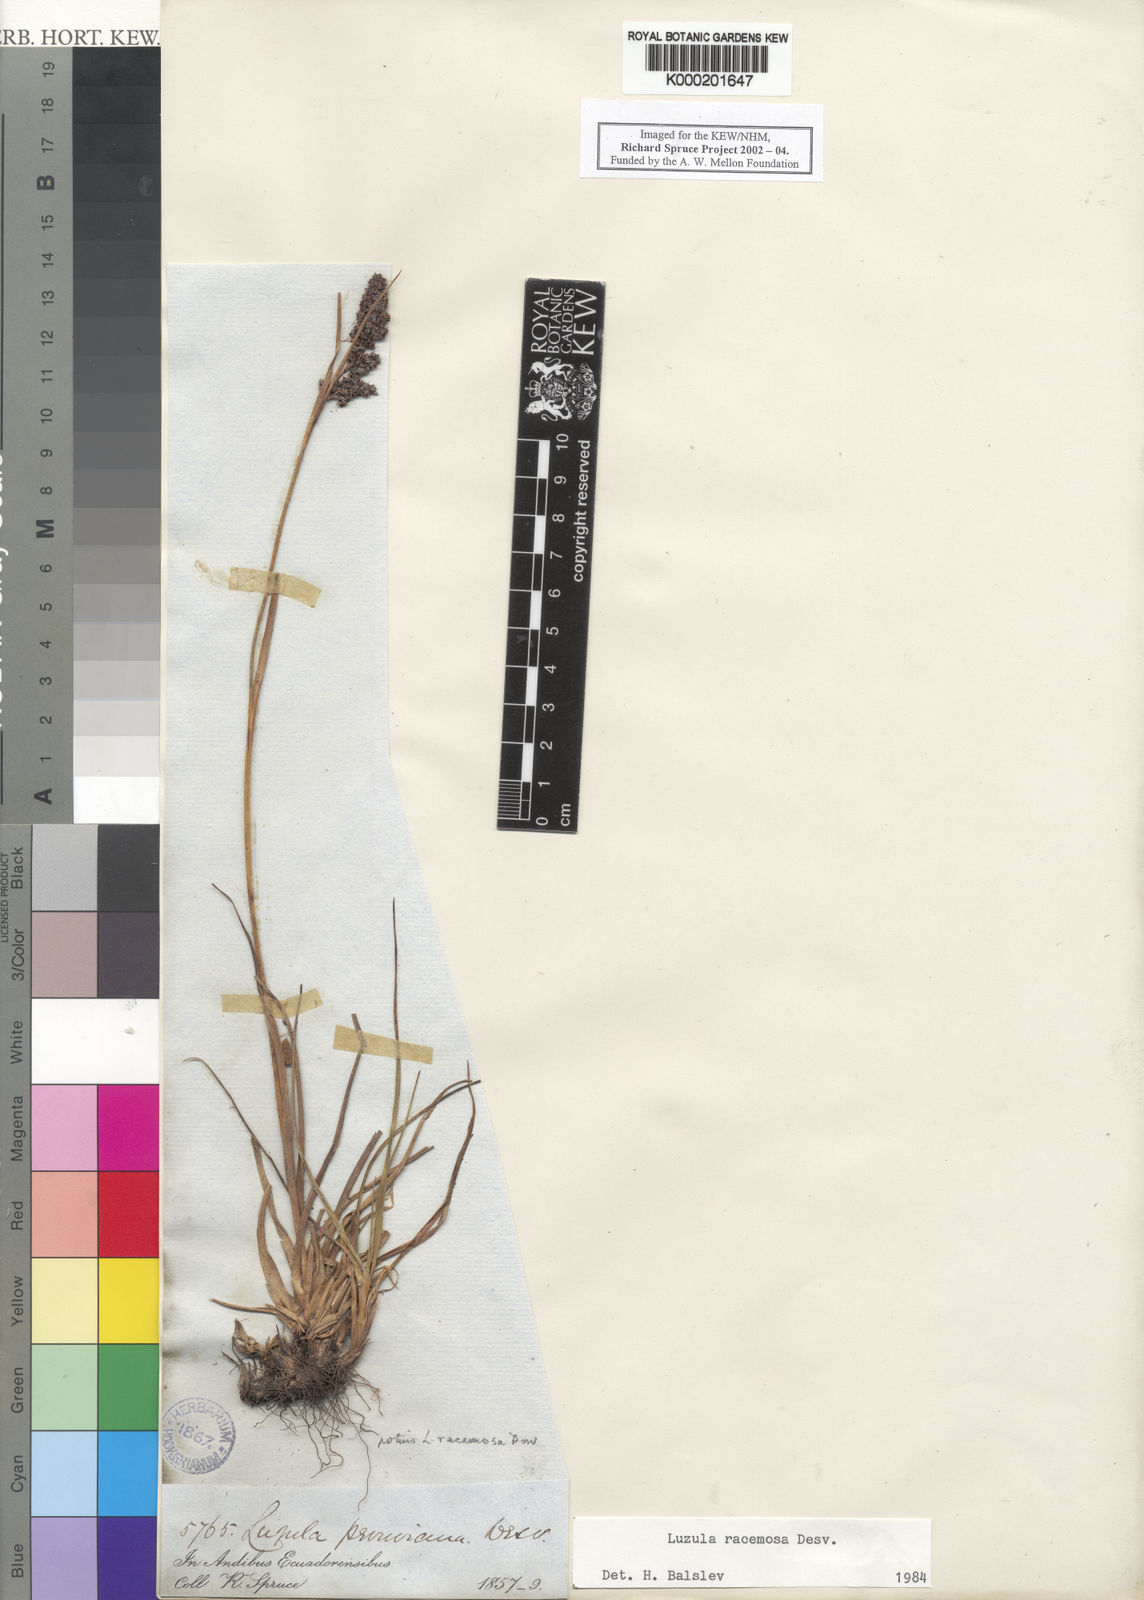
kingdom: Plantae
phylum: Tracheophyta
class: Liliopsida
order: Poales
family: Juncaceae
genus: Luzula
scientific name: Luzula racemosa
